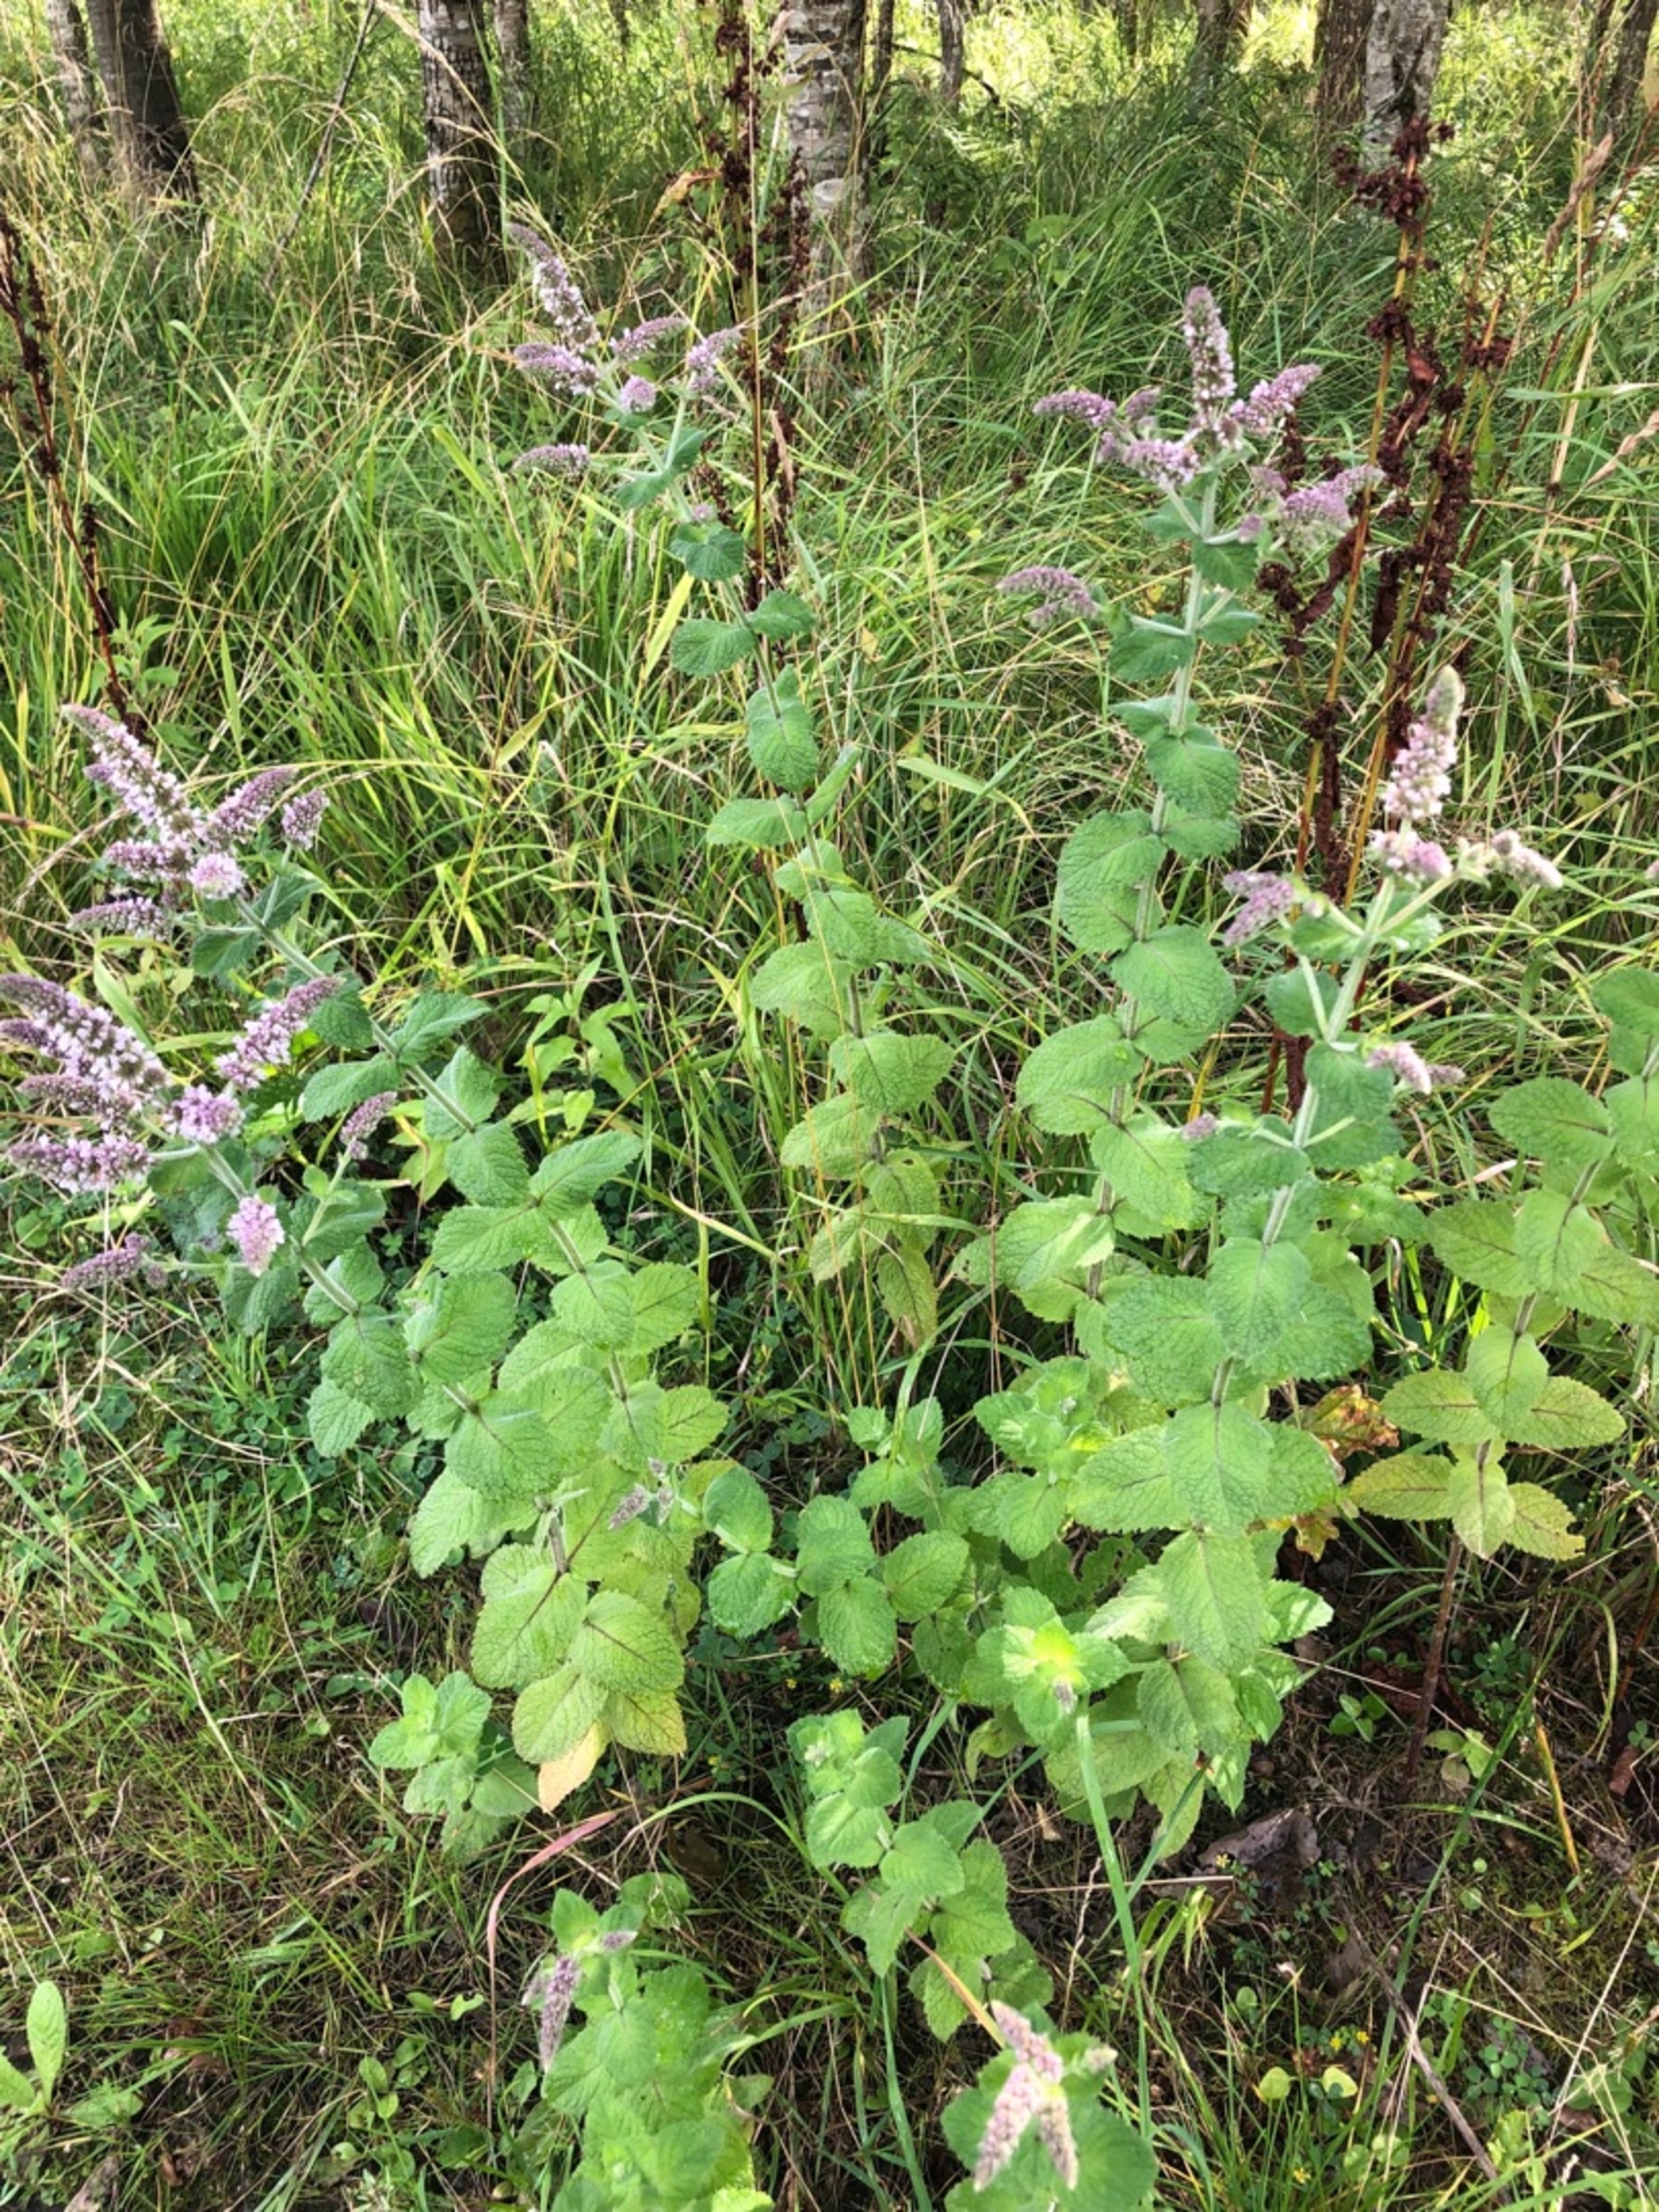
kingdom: Plantae
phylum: Tracheophyta
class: Magnoliopsida
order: Lamiales
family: Lamiaceae
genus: Mentha
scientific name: Mentha villosa
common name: Æble-mynte
